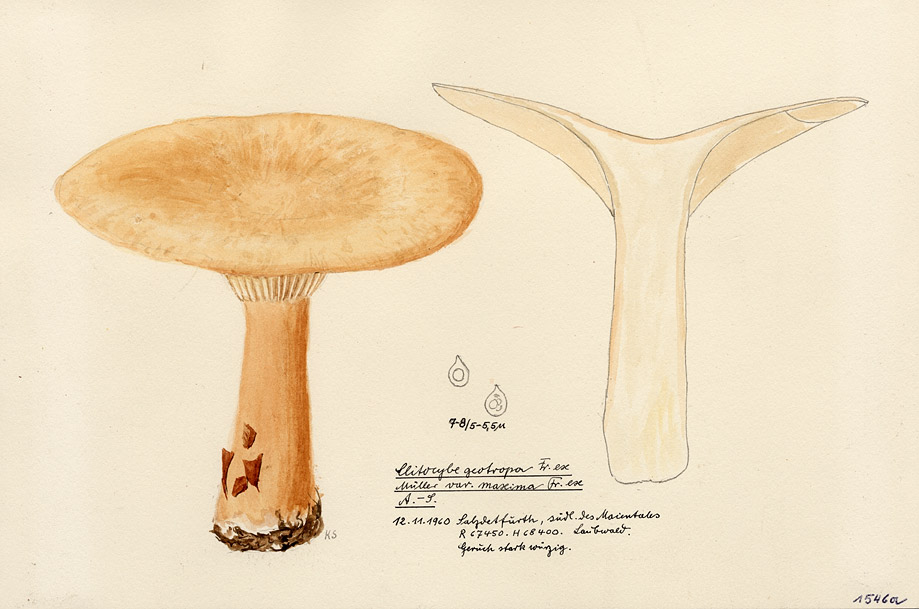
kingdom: Fungi
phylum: Basidiomycota
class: Agaricomycetes
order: Agaricales
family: Tricholomataceae
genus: Infundibulicybe
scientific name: Infundibulicybe geotropa
